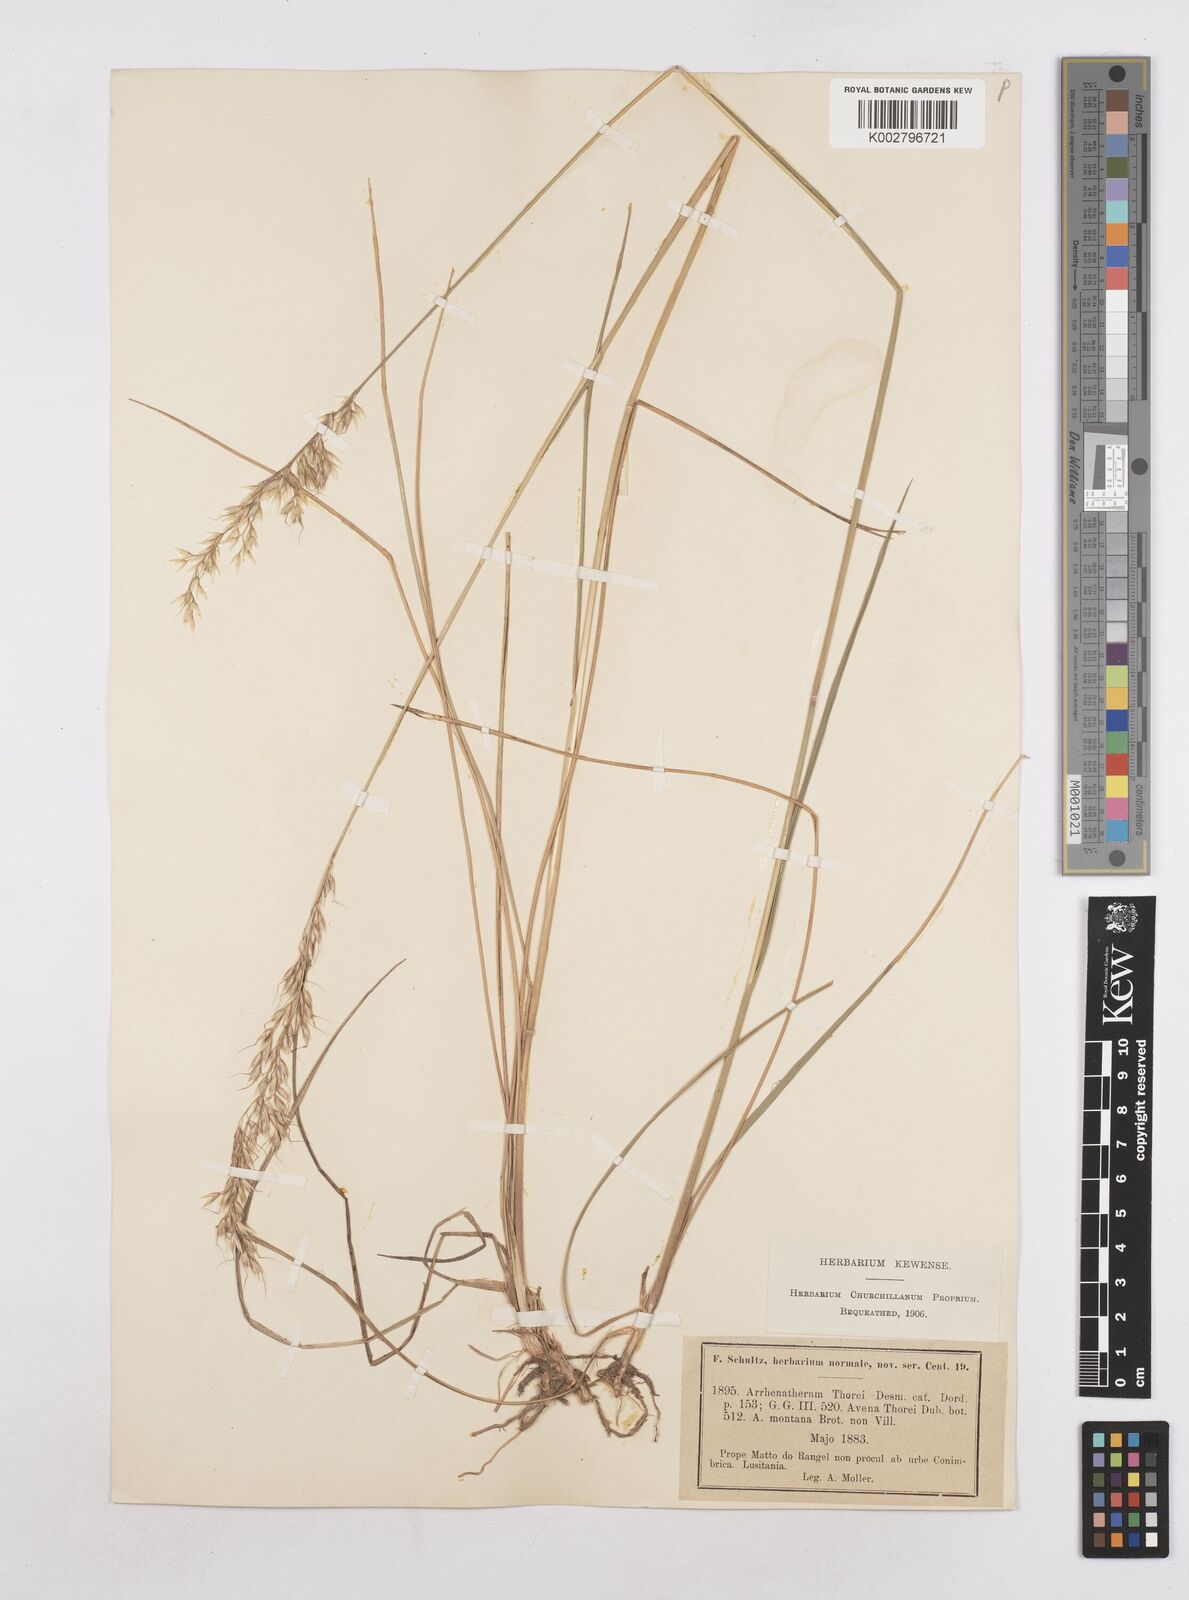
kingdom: Plantae
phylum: Tracheophyta
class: Liliopsida
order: Poales
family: Poaceae
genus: Arrhenatherum
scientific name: Arrhenatherum longifolium
